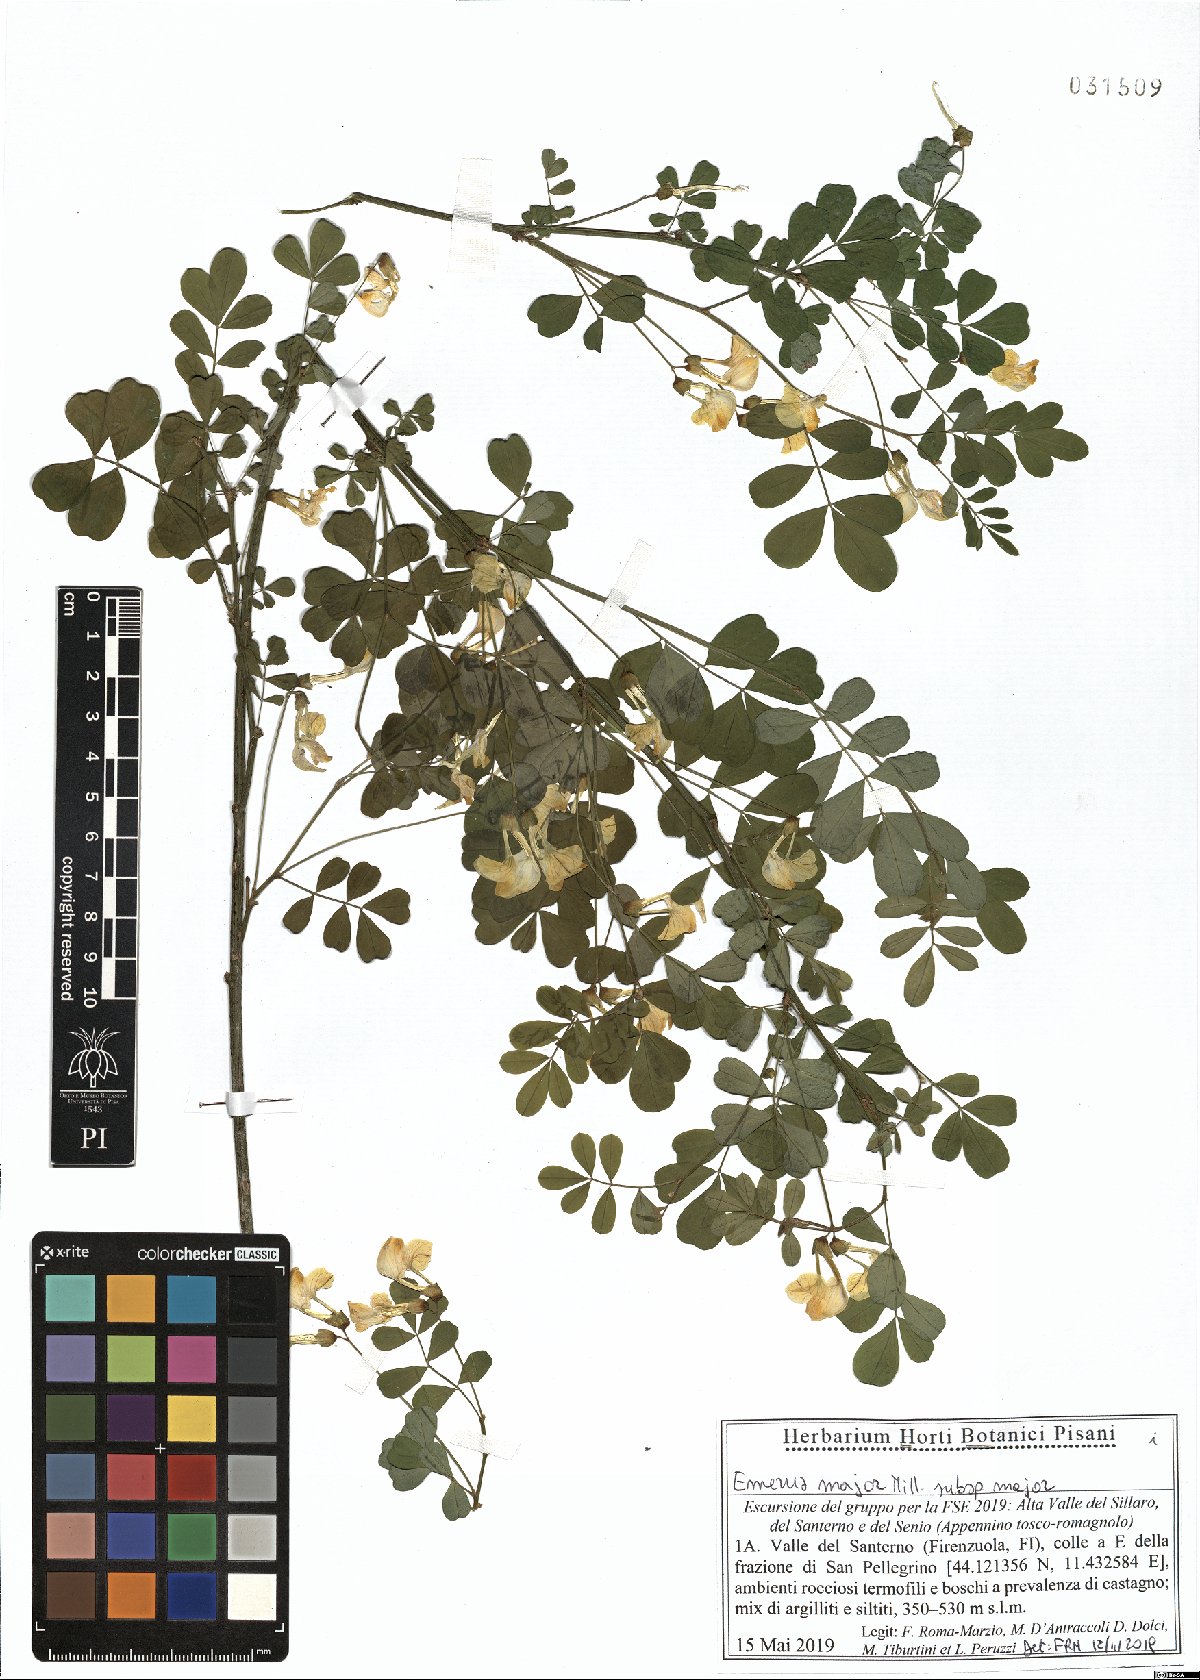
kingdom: Plantae
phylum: Tracheophyta
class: Magnoliopsida
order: Fabales
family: Fabaceae
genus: Hippocrepis
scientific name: Hippocrepis emerus
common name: Scorpion senna
